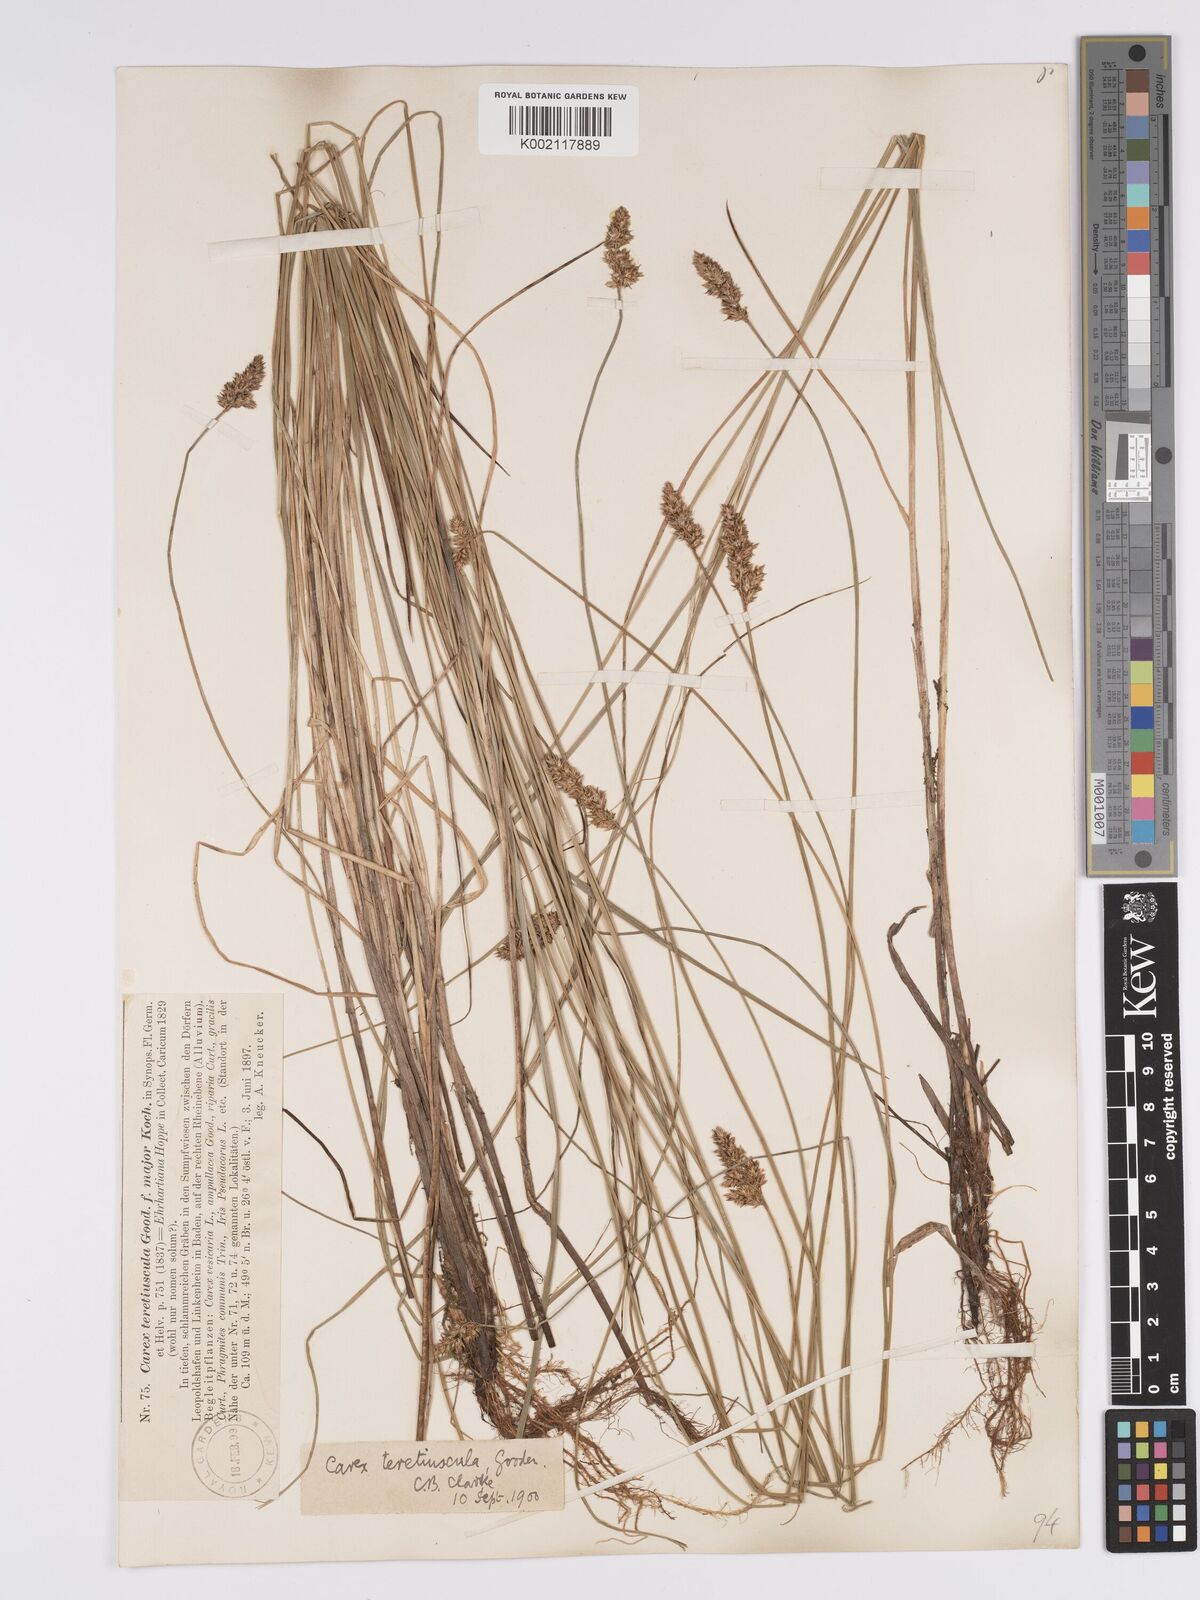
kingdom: Plantae
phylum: Tracheophyta
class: Liliopsida
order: Poales
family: Cyperaceae
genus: Carex
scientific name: Carex diandra
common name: Lesser tussock-sedge
